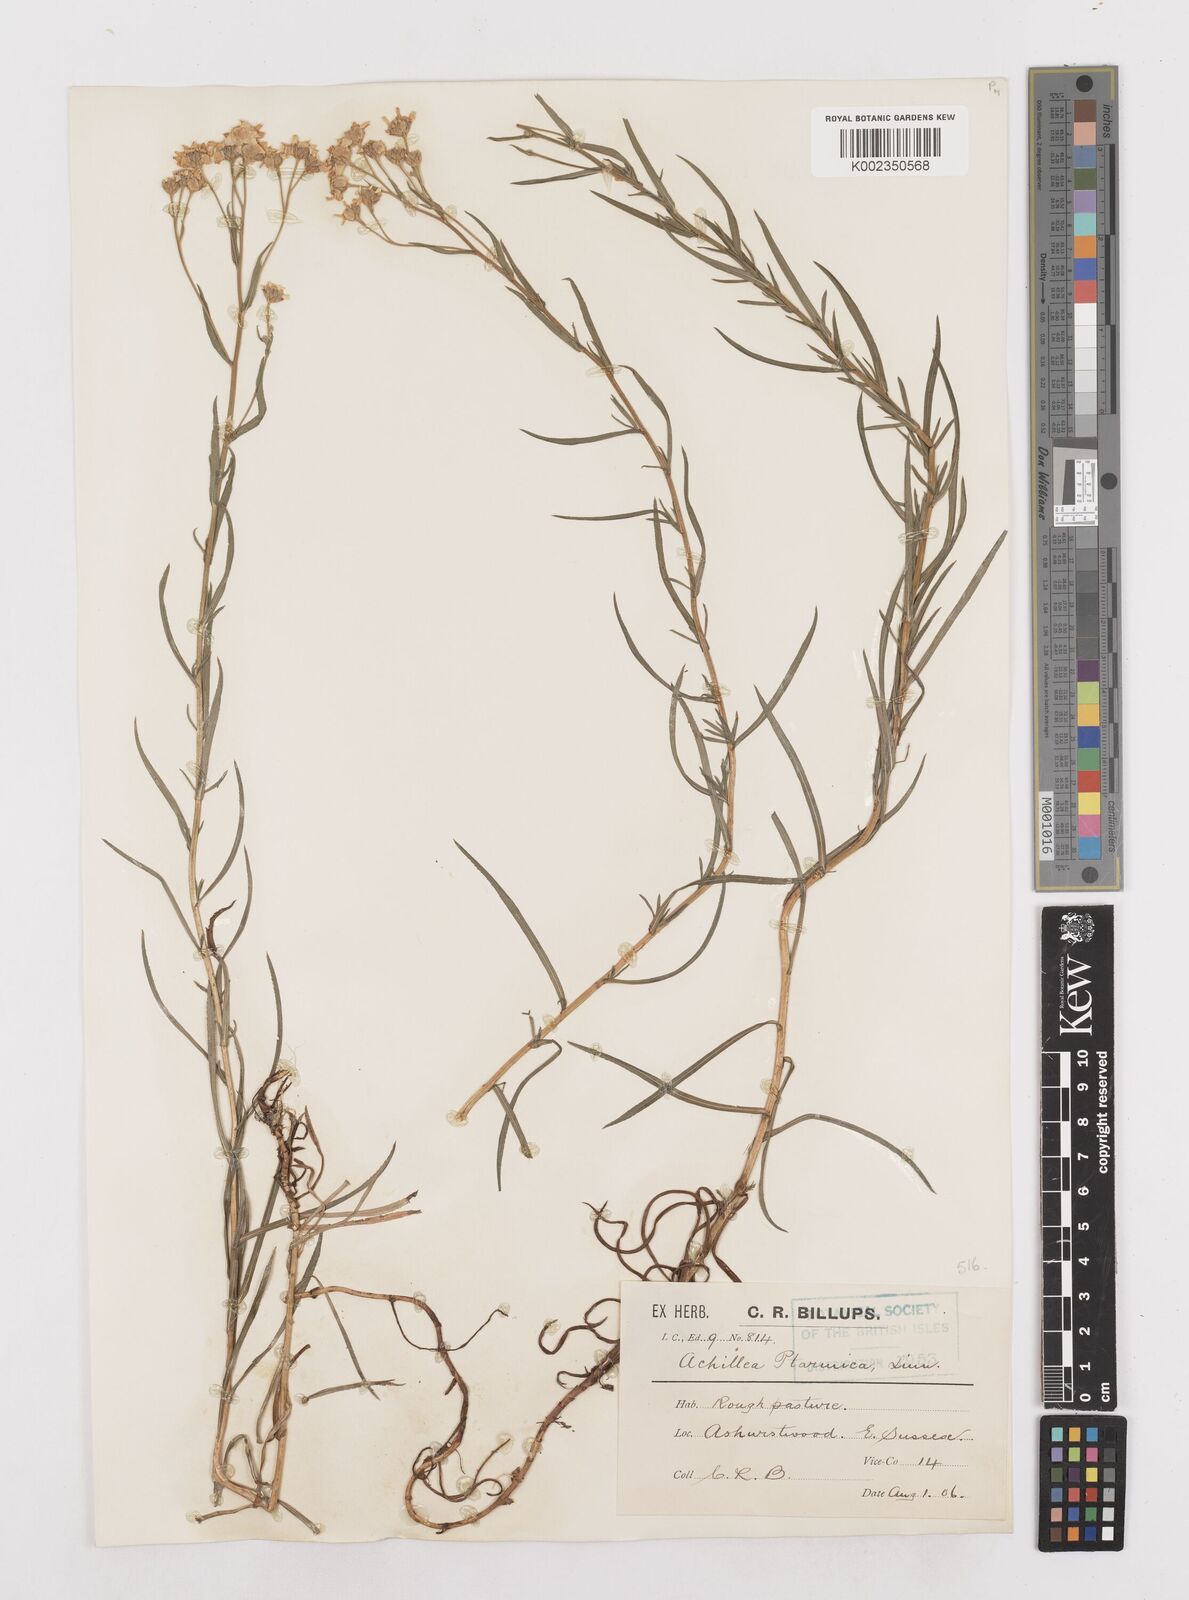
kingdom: Plantae
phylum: Tracheophyta
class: Magnoliopsida
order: Asterales
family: Asteraceae
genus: Achillea
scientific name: Achillea ptarmica
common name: Sneezeweed
